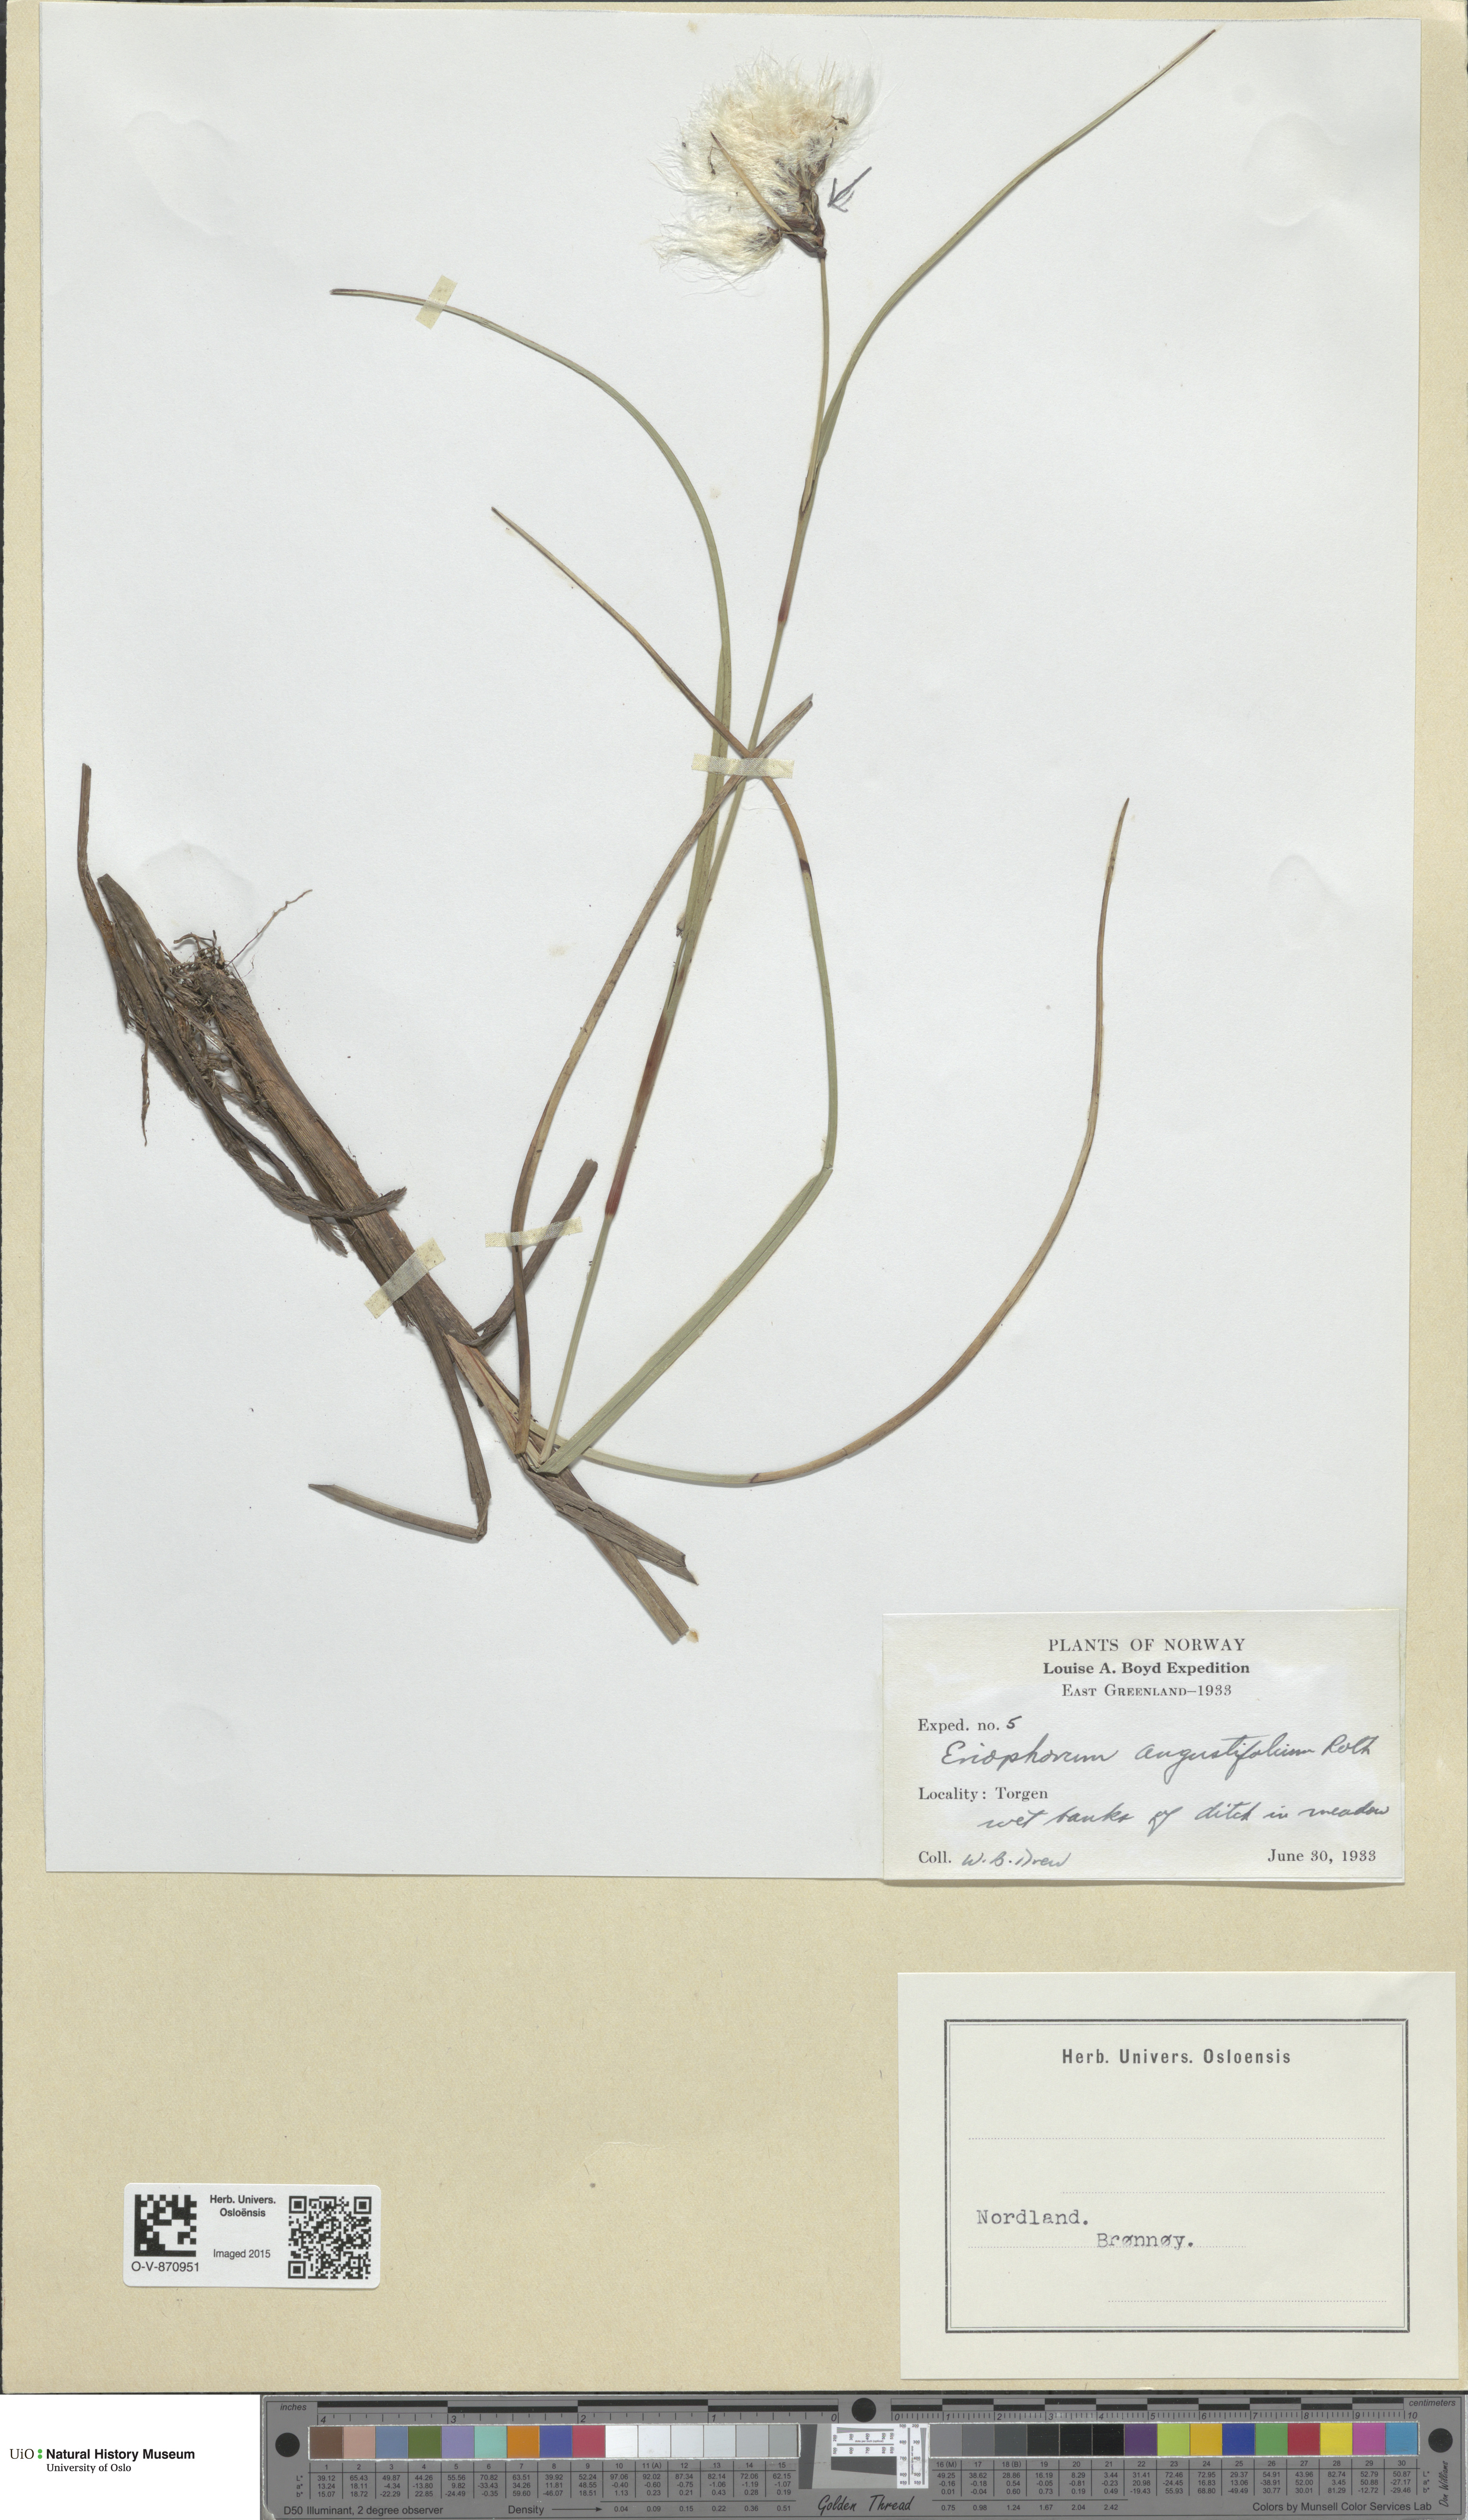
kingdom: Plantae
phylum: Tracheophyta
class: Liliopsida
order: Poales
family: Cyperaceae
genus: Eriophorum
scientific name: Eriophorum angustifolium
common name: Common cottongrass
